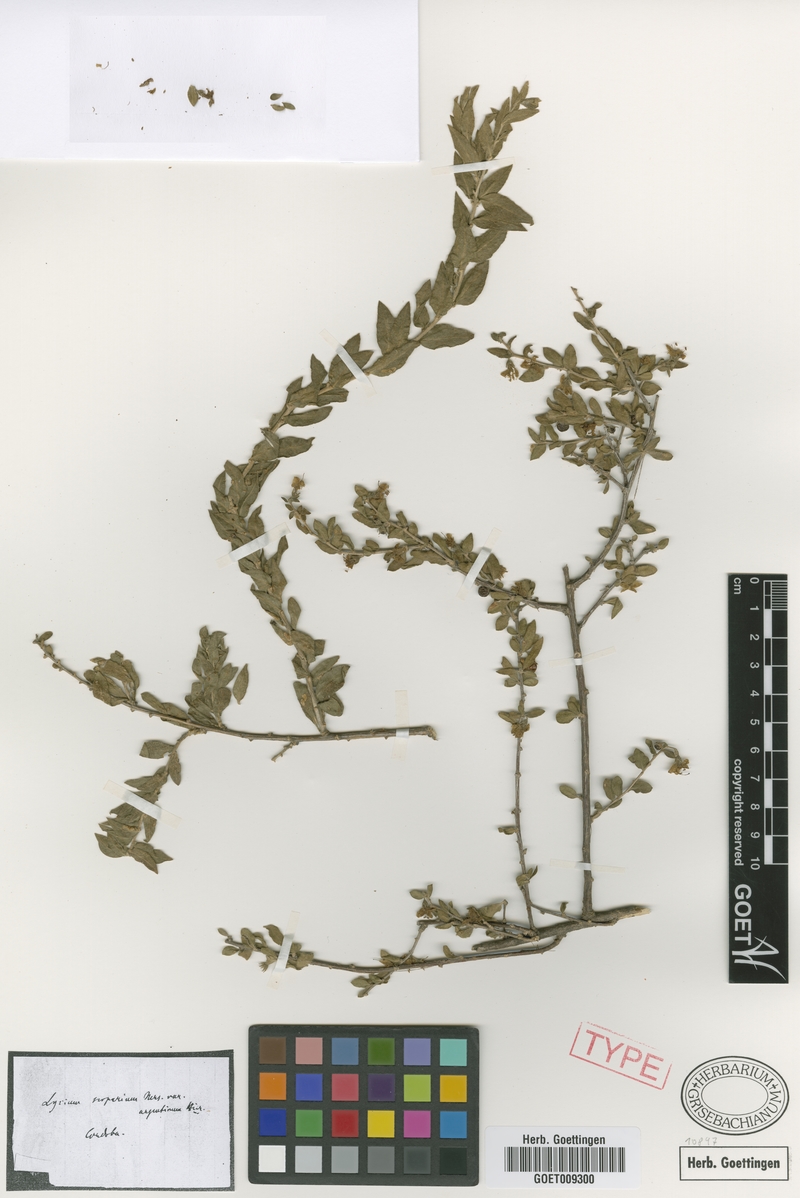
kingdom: Plantae
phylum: Tracheophyta
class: Magnoliopsida
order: Solanales
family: Solanaceae
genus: Lycium
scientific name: Lycium ciliatum
